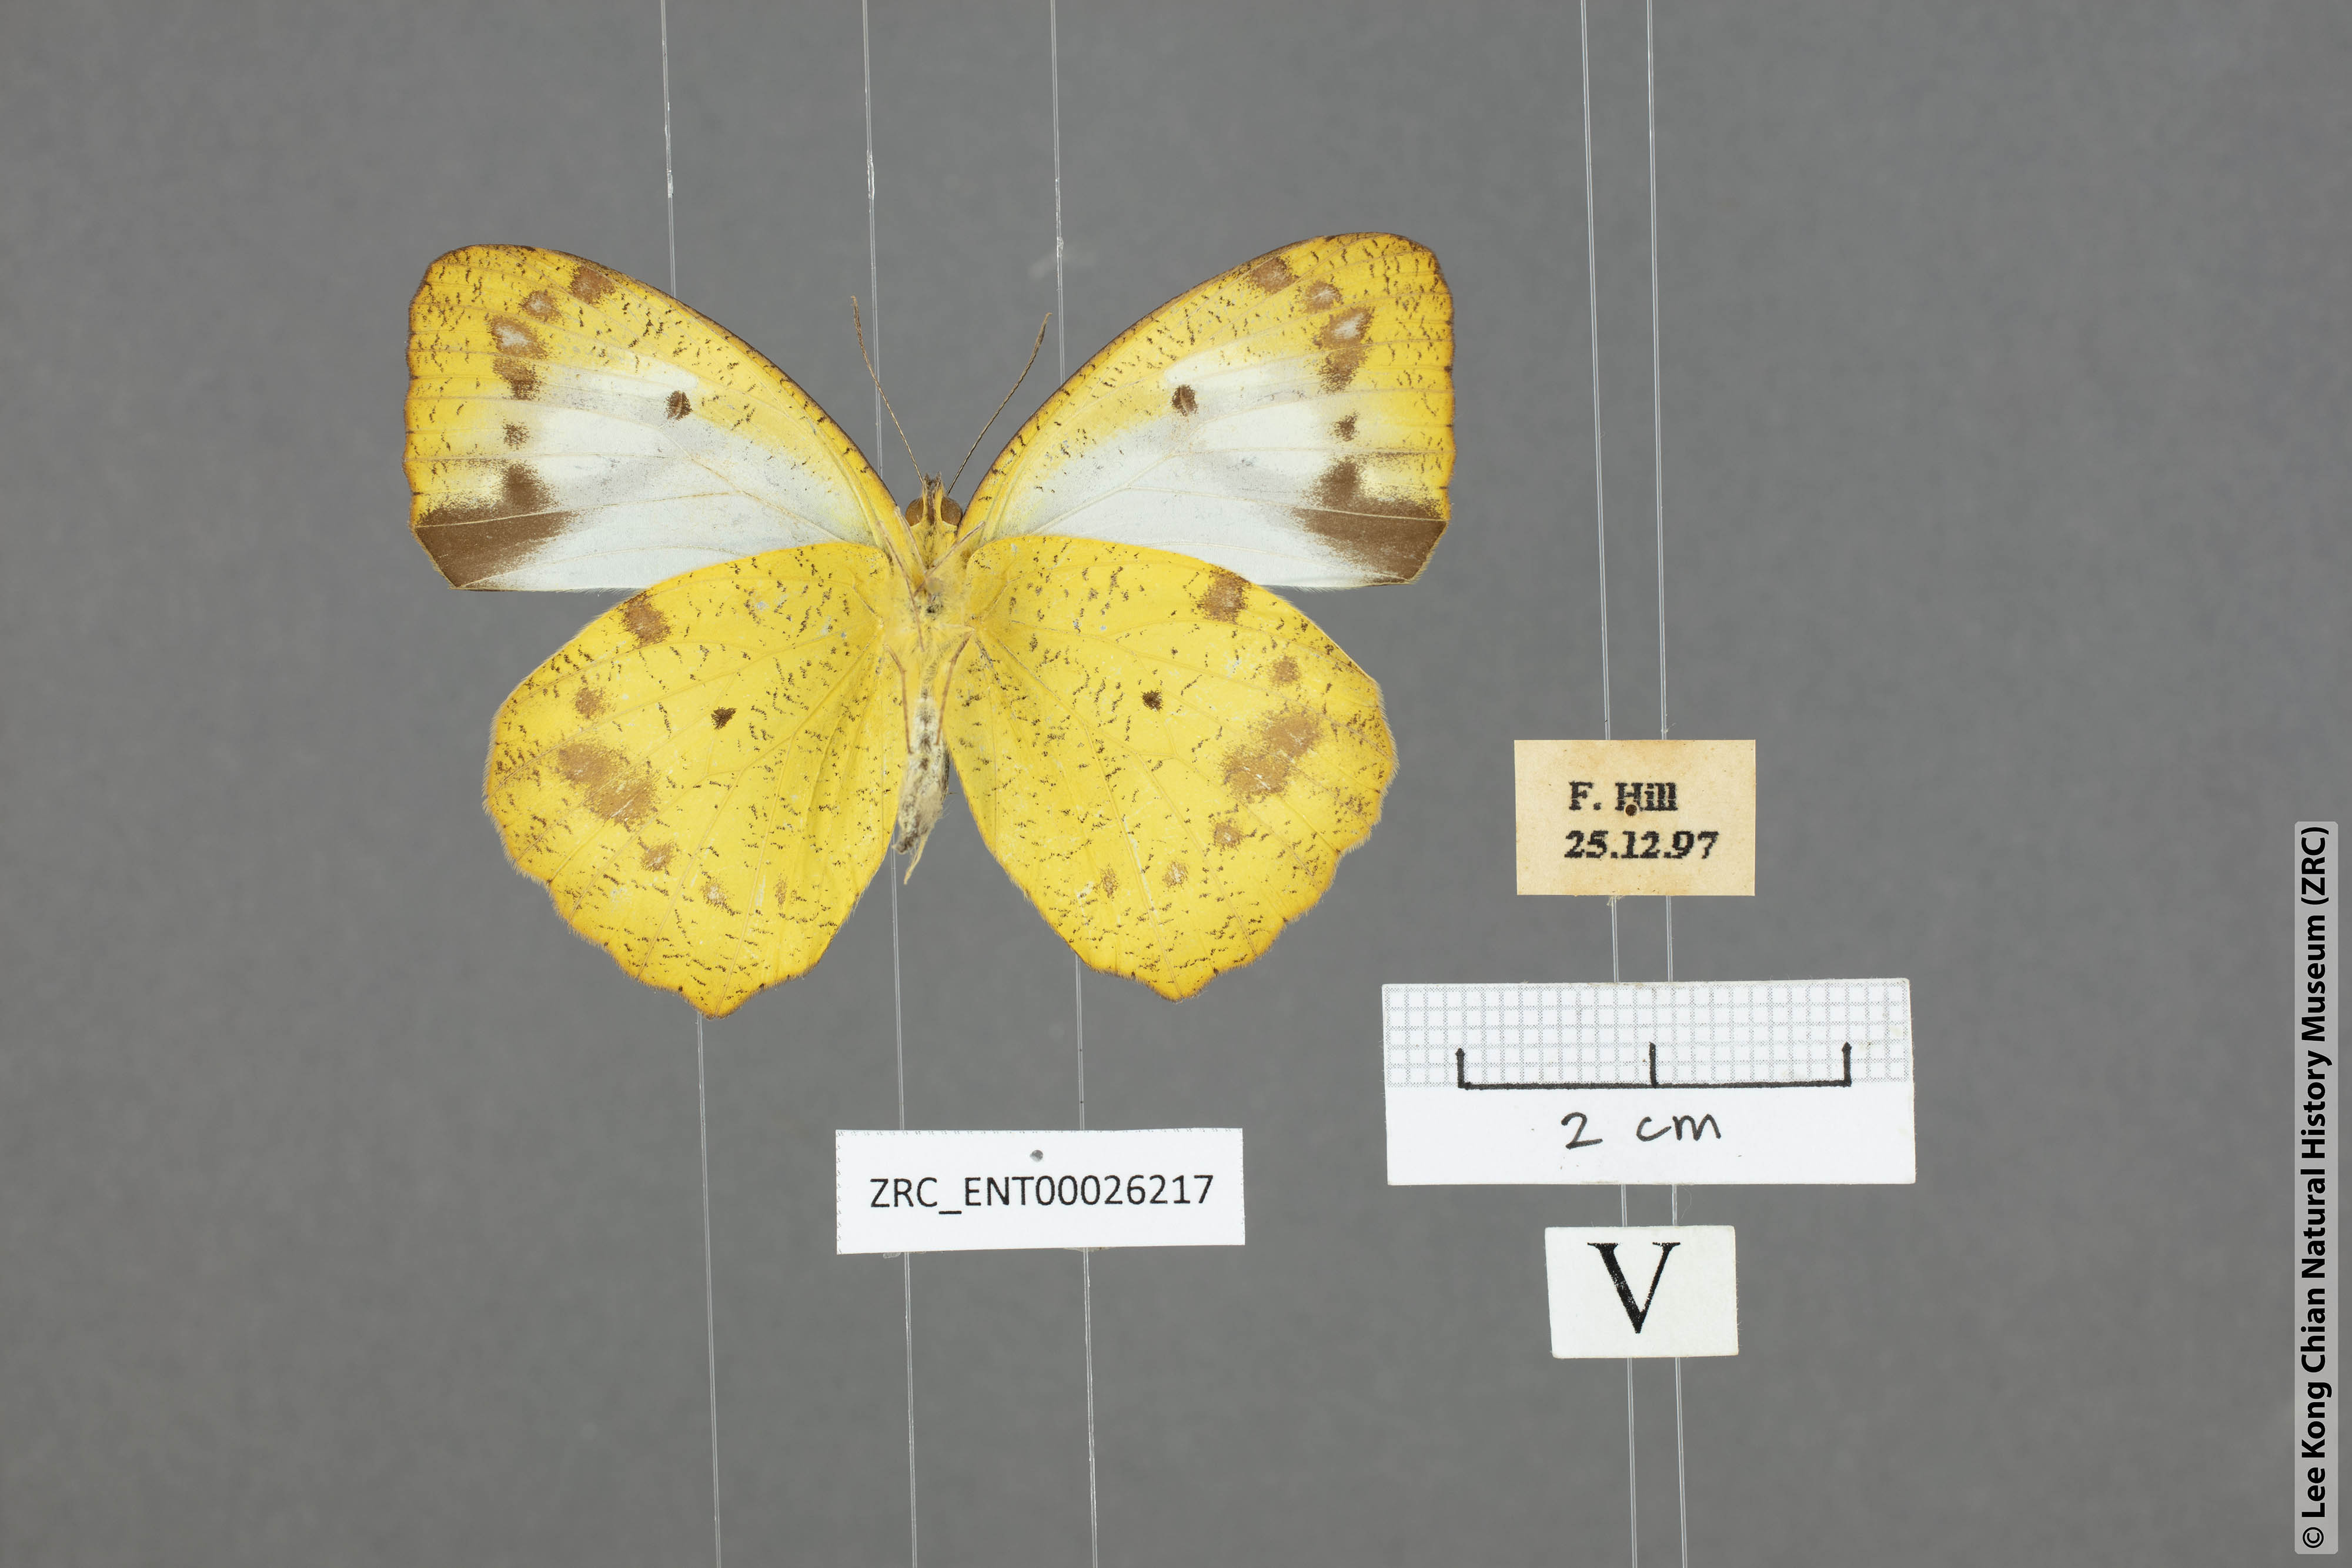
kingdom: Animalia
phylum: Arthropoda
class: Insecta
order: Lepidoptera
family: Pieridae
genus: Ixias
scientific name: Ixias pyrene
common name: Yellow orange tip
